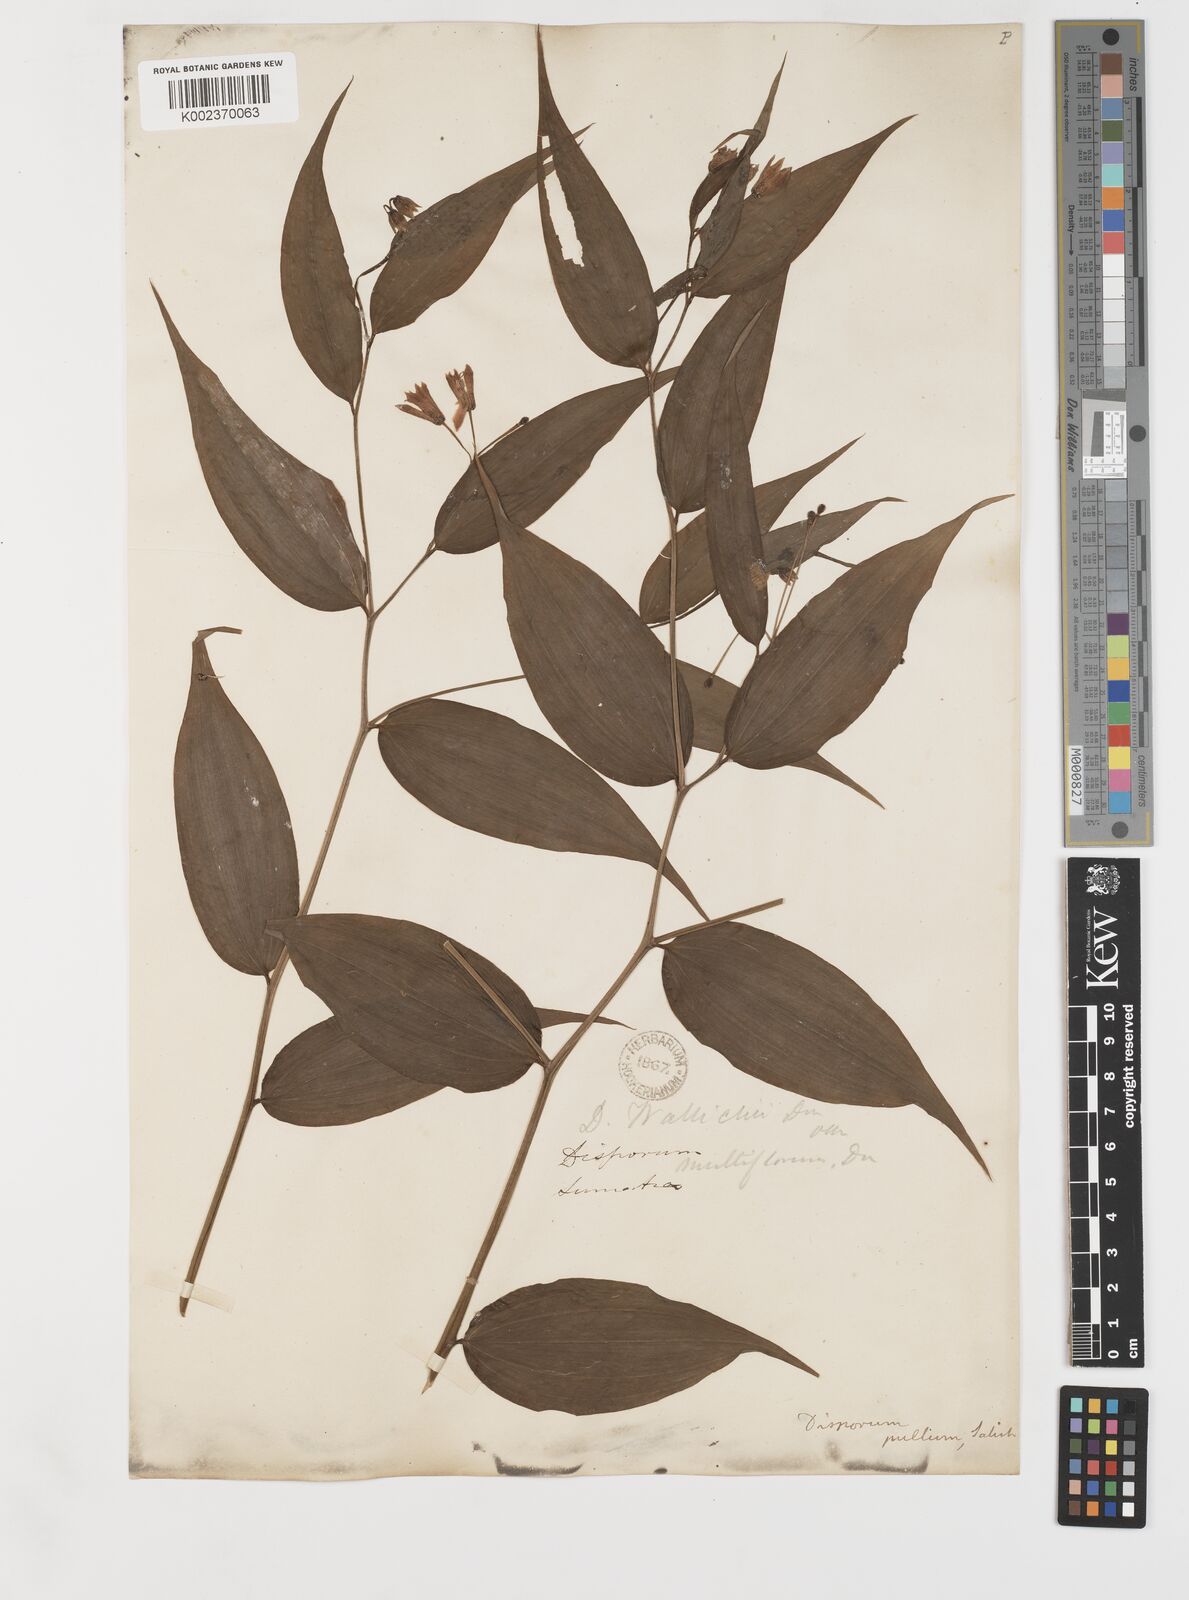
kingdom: Plantae
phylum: Tracheophyta
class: Liliopsida
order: Liliales
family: Colchicaceae
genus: Disporum
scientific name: Disporum cantoniense
